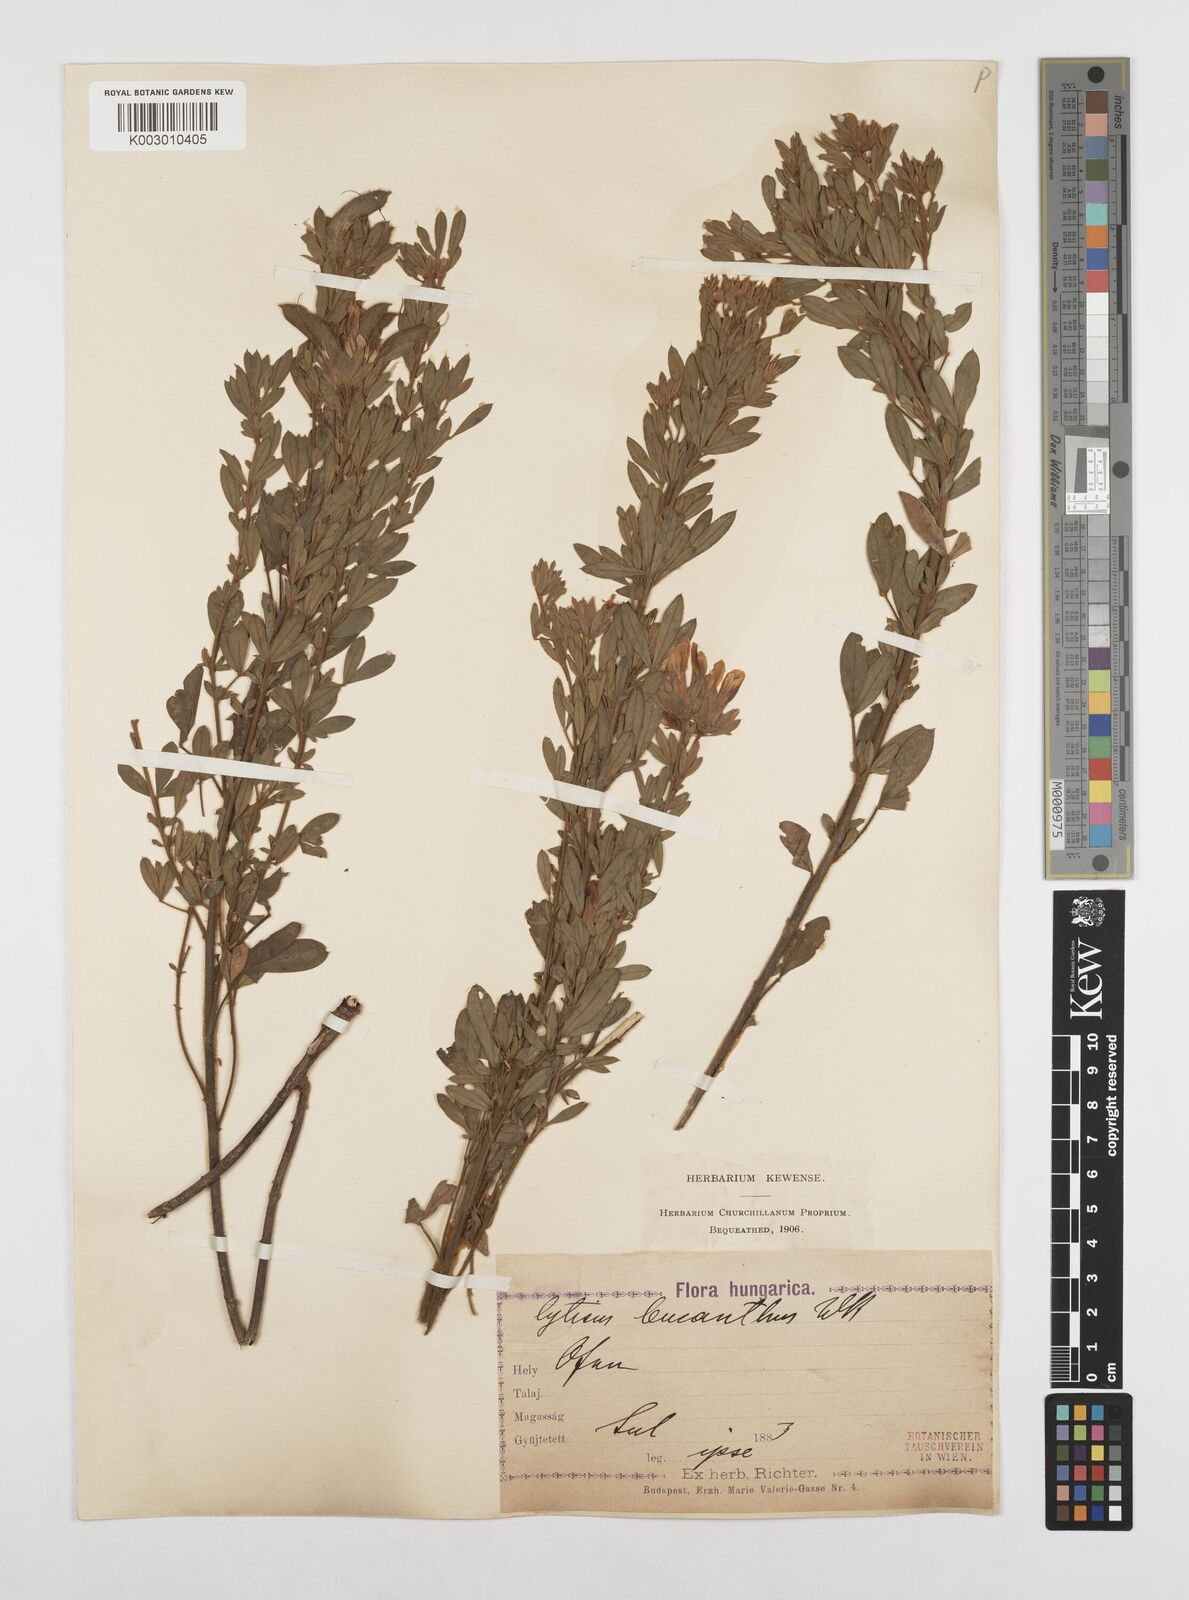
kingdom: Plantae
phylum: Tracheophyta
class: Magnoliopsida
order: Fabales
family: Fabaceae
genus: Chamaecytisus
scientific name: Chamaecytisus rochelii
